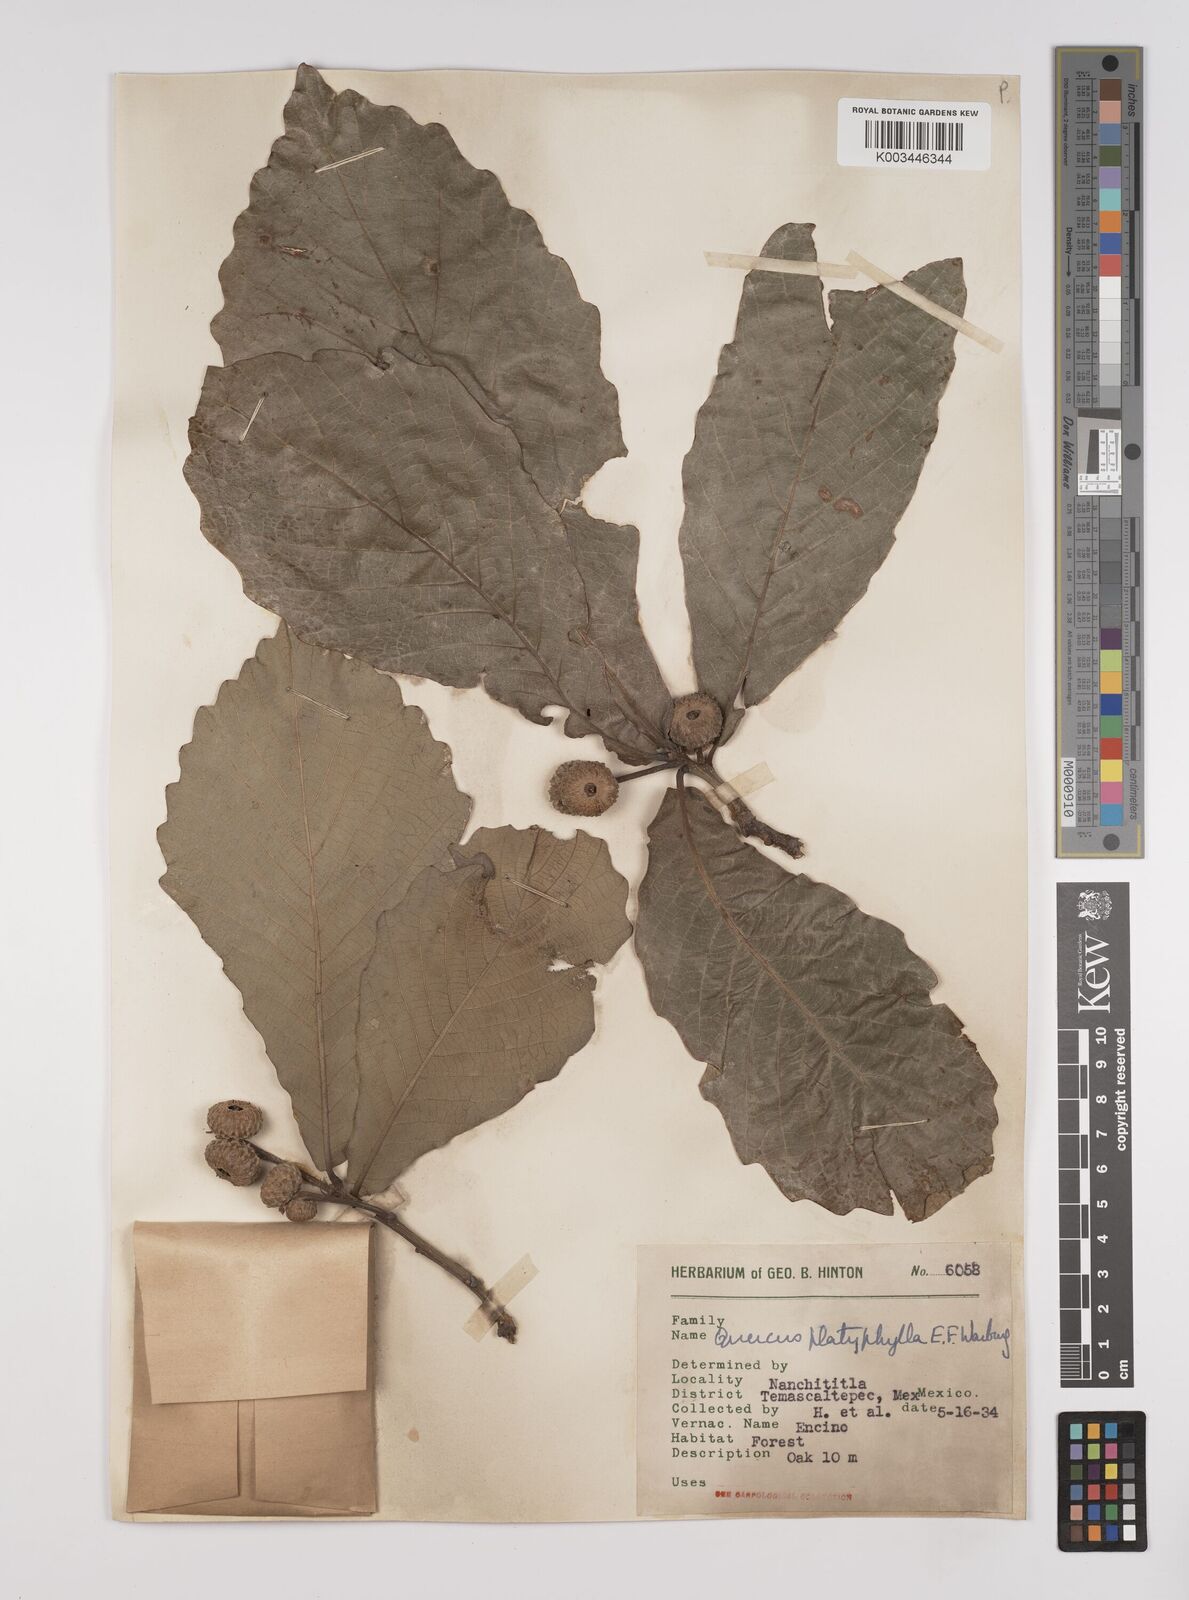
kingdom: Plantae
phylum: Tracheophyta
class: Magnoliopsida
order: Fagales
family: Fagaceae
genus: Quercus
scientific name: Quercus
